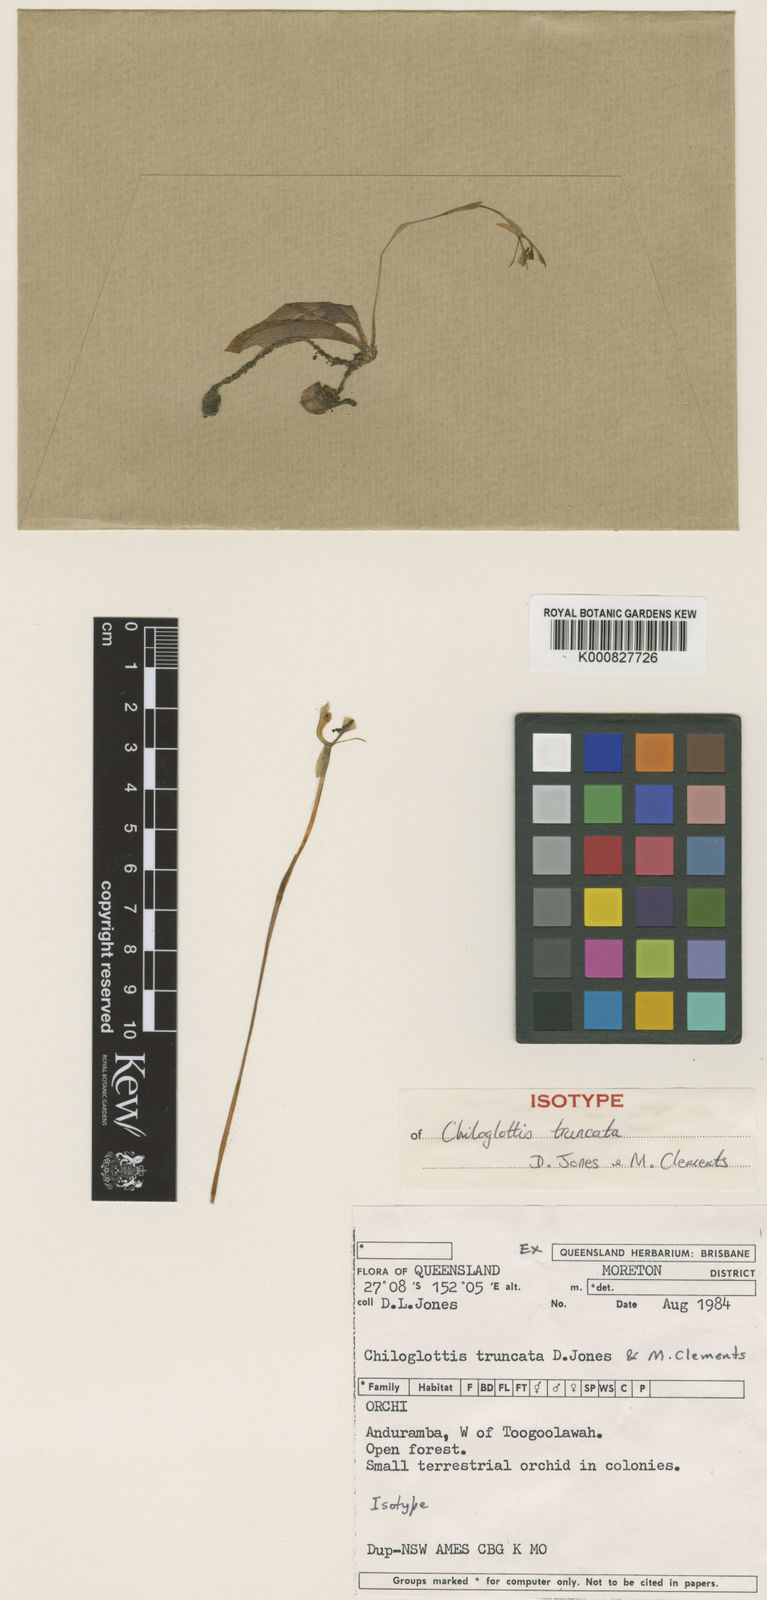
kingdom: Plantae
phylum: Tracheophyta
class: Liliopsida
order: Asparagales
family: Orchidaceae
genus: Chiloglottis
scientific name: Chiloglottis truncata
